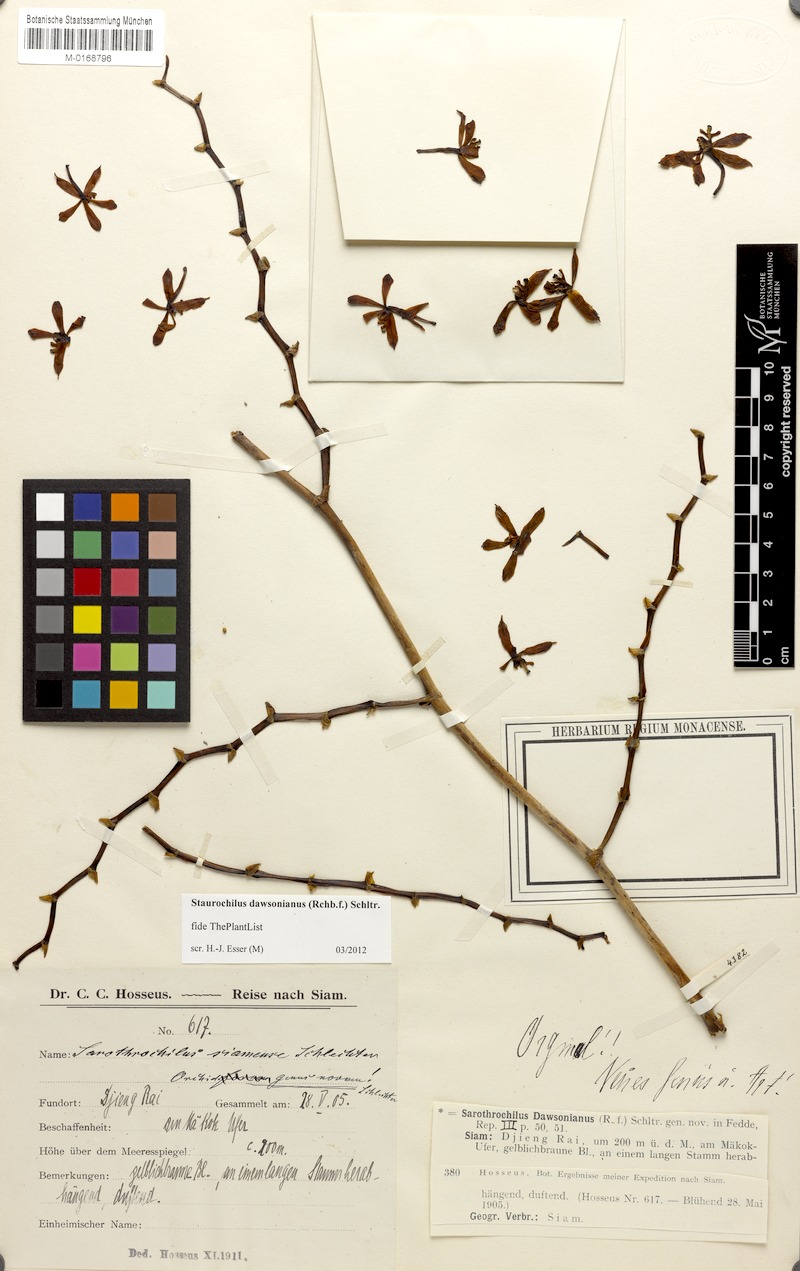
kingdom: Plantae
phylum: Tracheophyta
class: Liliopsida
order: Asparagales
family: Orchidaceae
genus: Trichoglottis
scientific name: Trichoglottis dawsoniana
